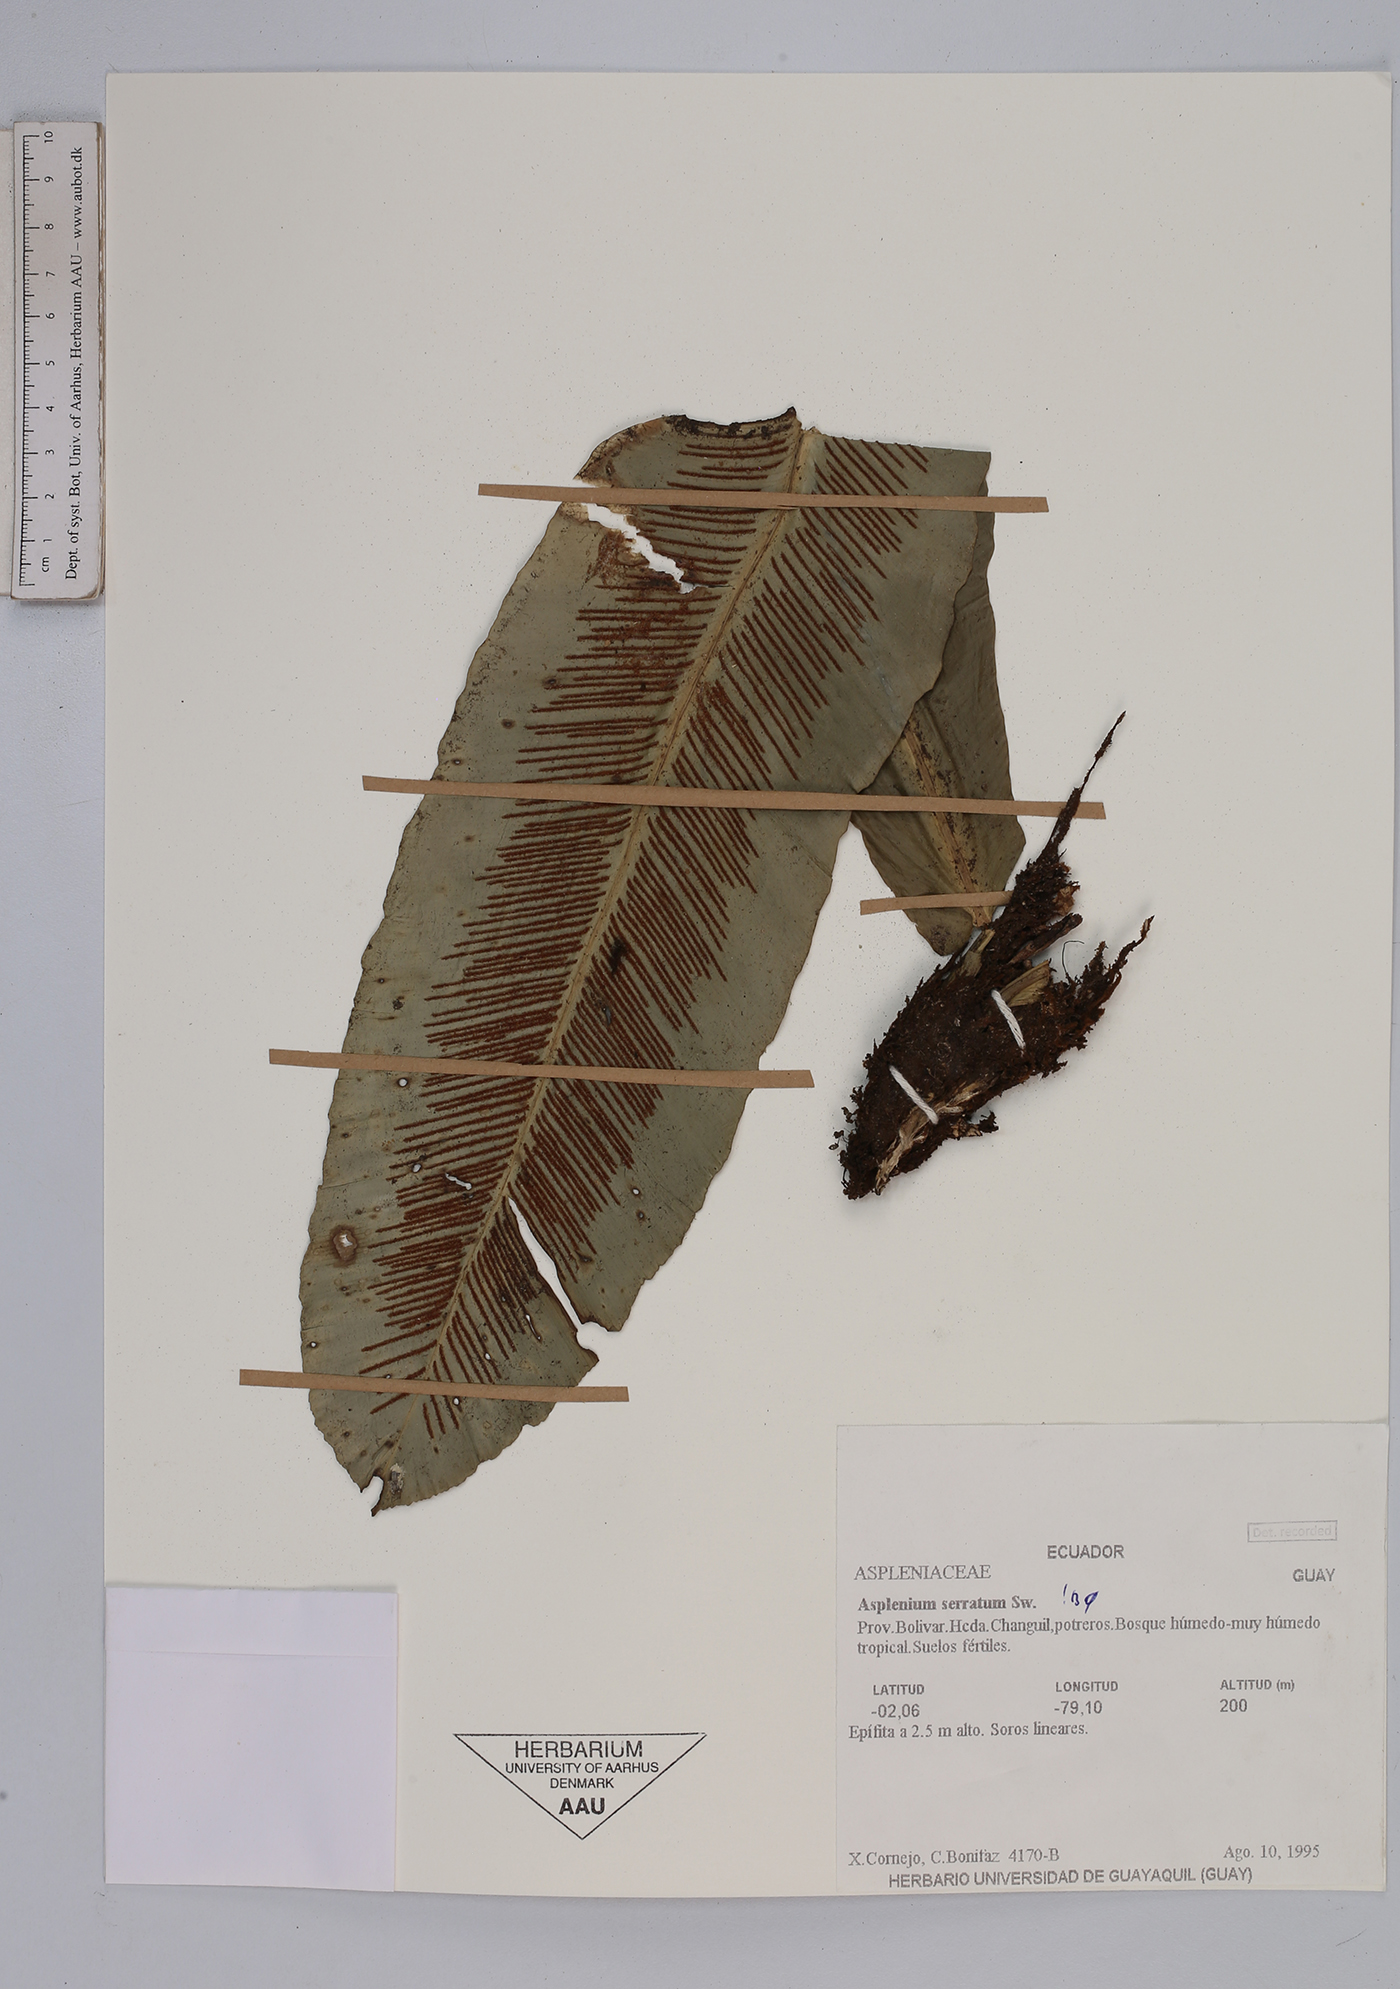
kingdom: Plantae
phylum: Tracheophyta
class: Polypodiopsida
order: Polypodiales
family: Aspleniaceae
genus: Asplenium
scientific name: Asplenium serratum
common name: Wild birdnest fern
